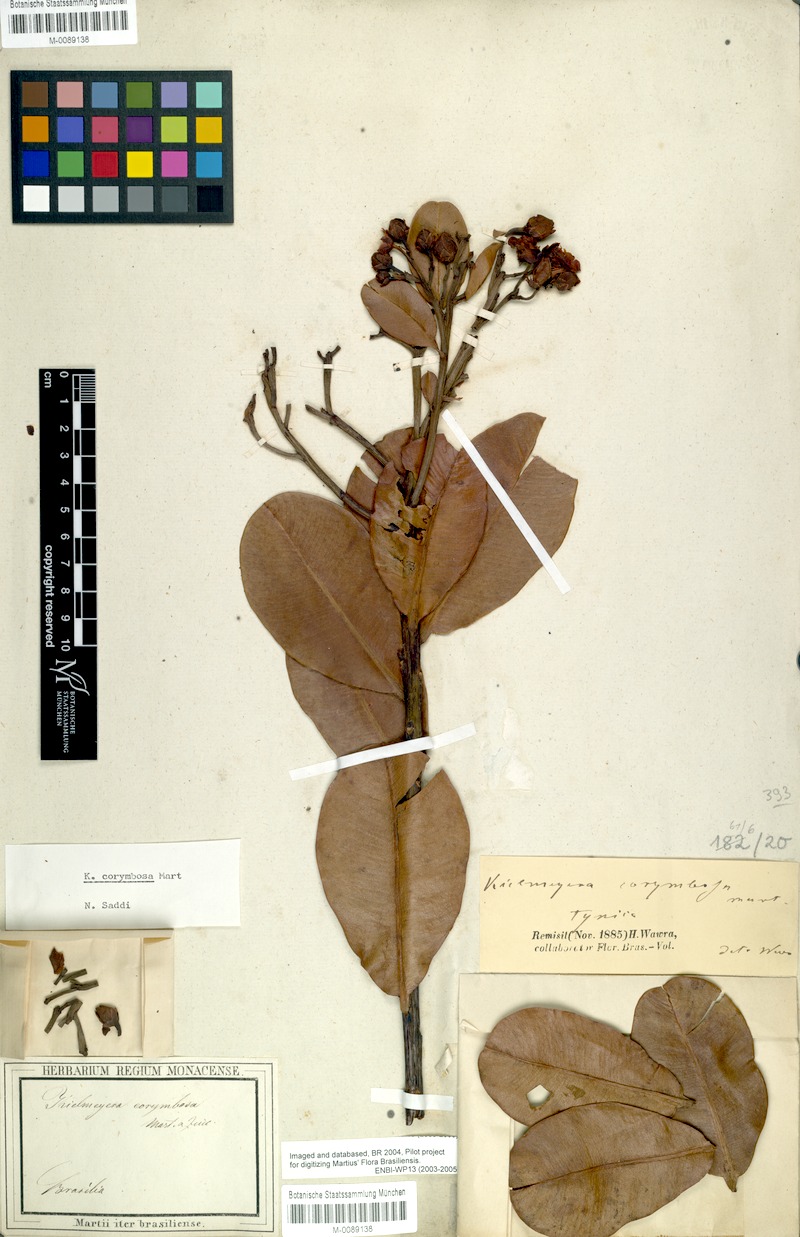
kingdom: Plantae
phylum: Tracheophyta
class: Magnoliopsida
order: Malpighiales
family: Calophyllaceae
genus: Kielmeyera
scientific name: Kielmeyera corymbosa
